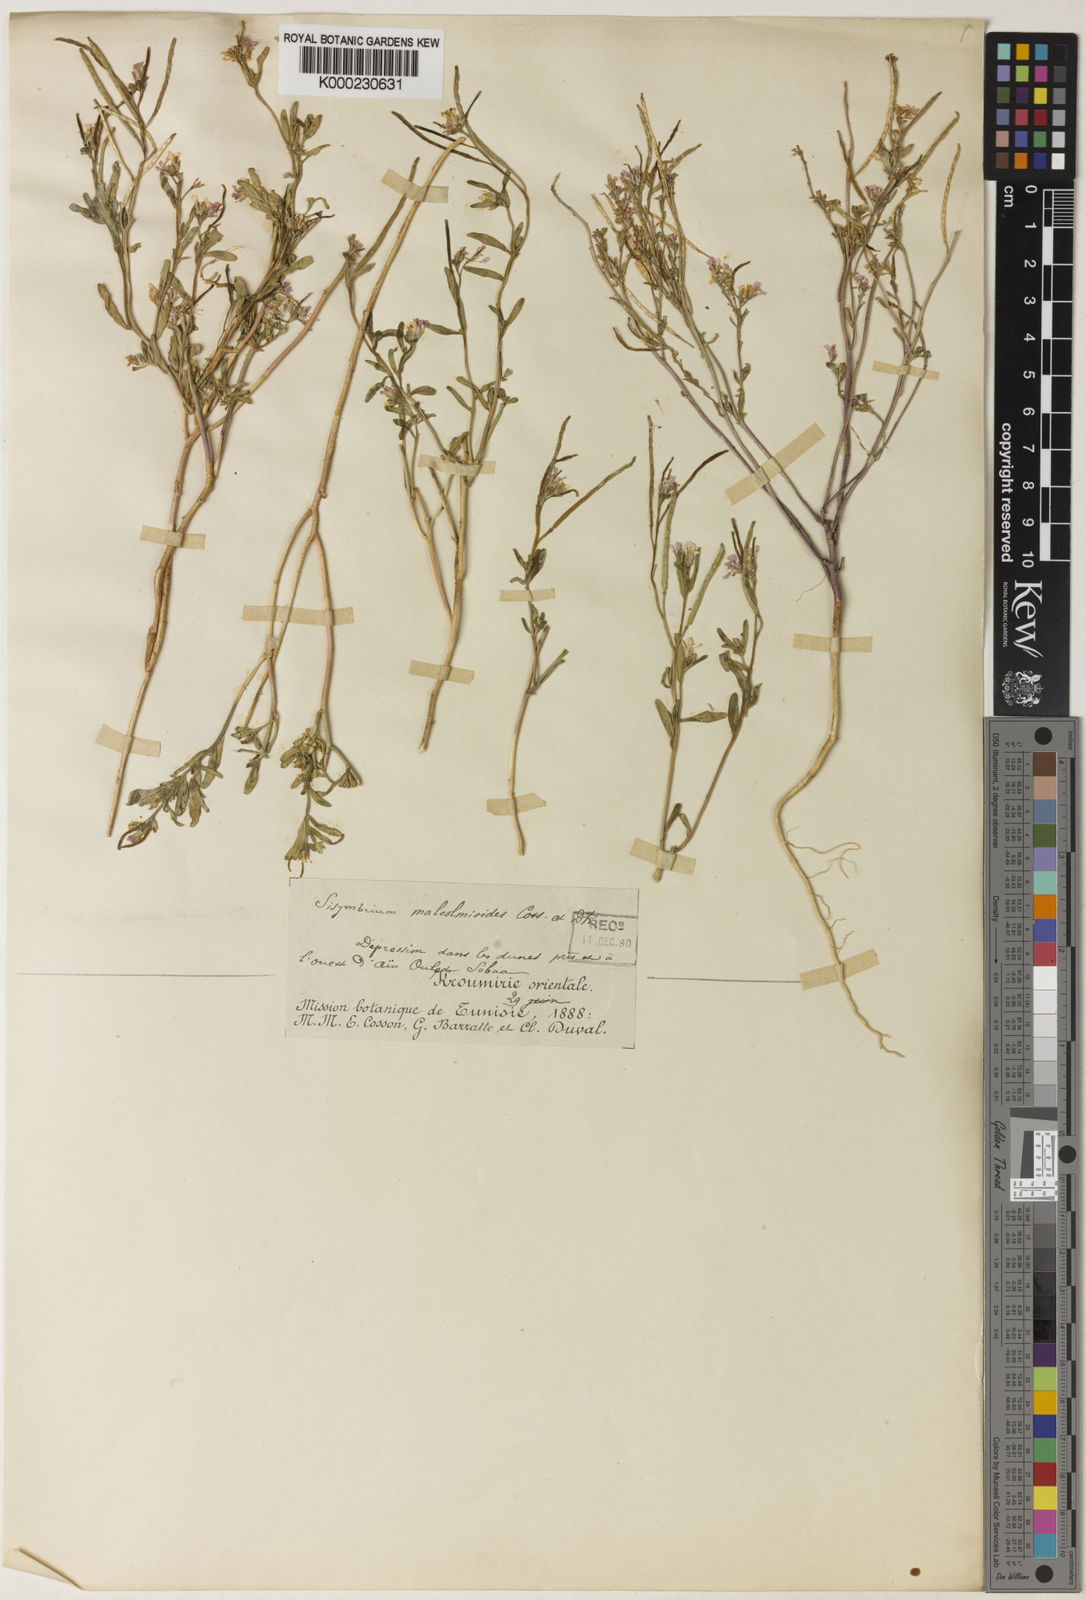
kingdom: Plantae
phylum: Tracheophyta
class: Magnoliopsida
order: Brassicales
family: Brassicaceae
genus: Maresia
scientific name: Maresia malcolmioides
